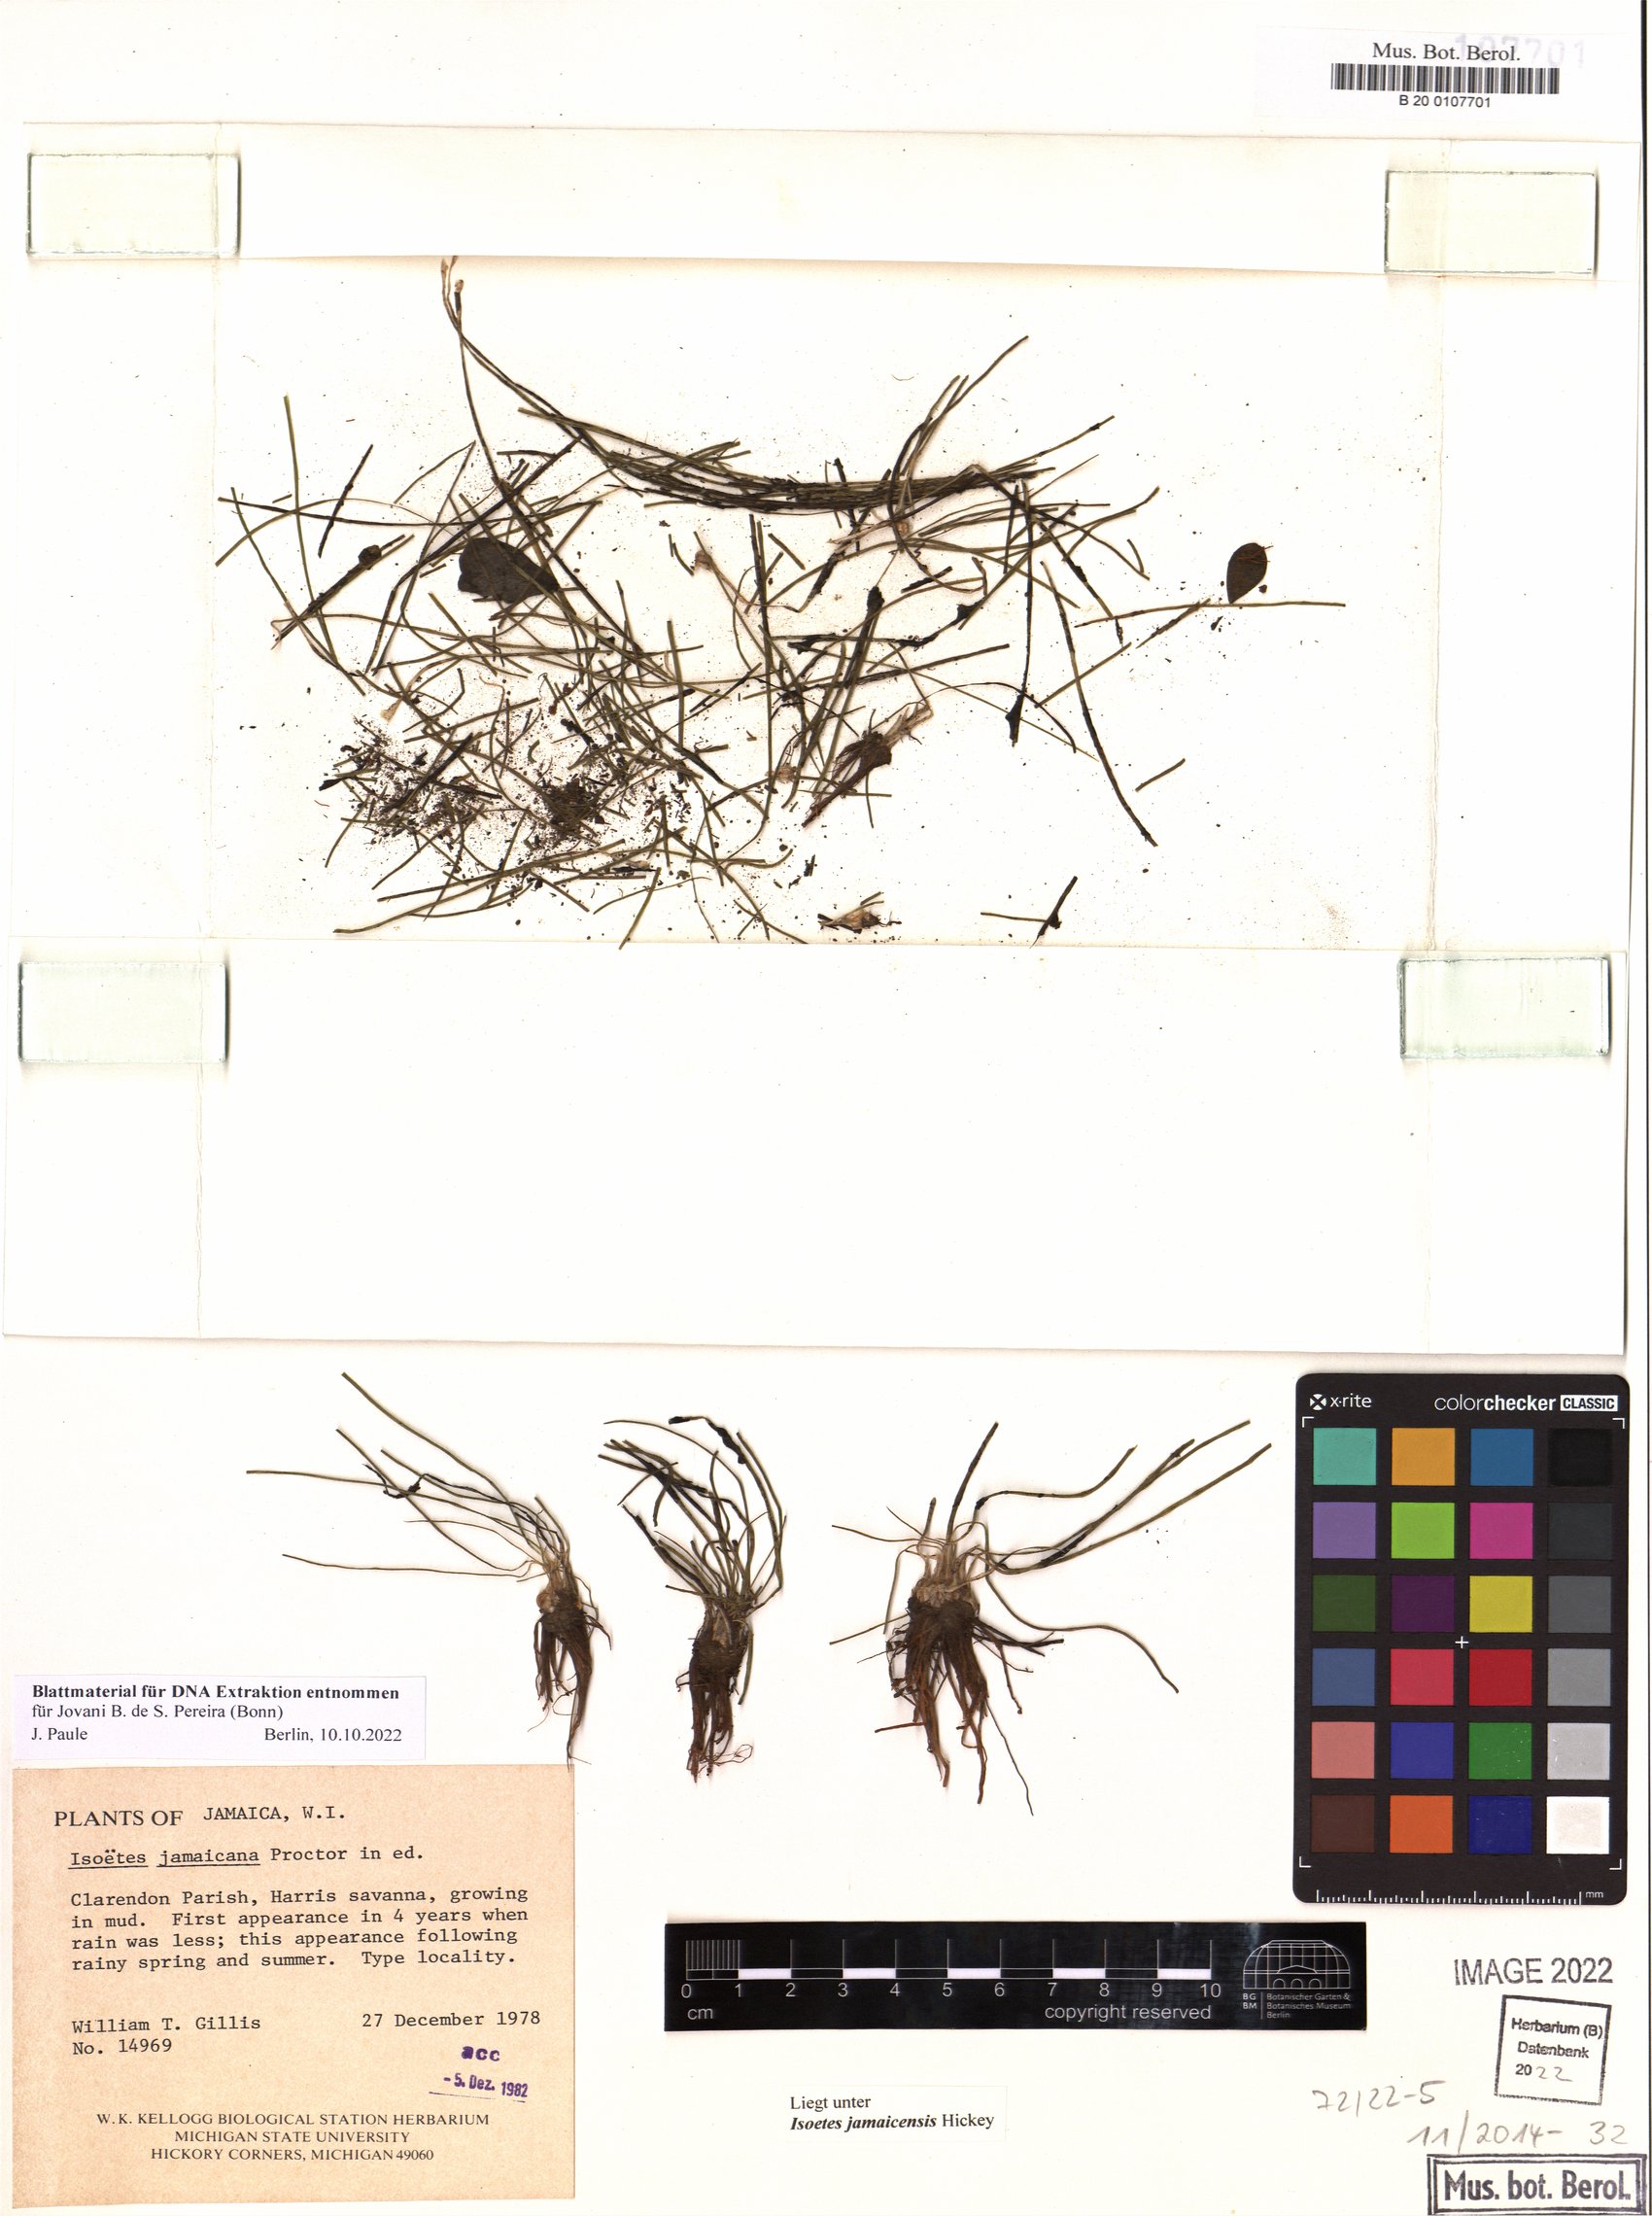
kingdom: Plantae
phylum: Tracheophyta
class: Lycopodiopsida
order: Isoetales
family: Isoetaceae
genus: Isoetes
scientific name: Isoetes jamaicensis
